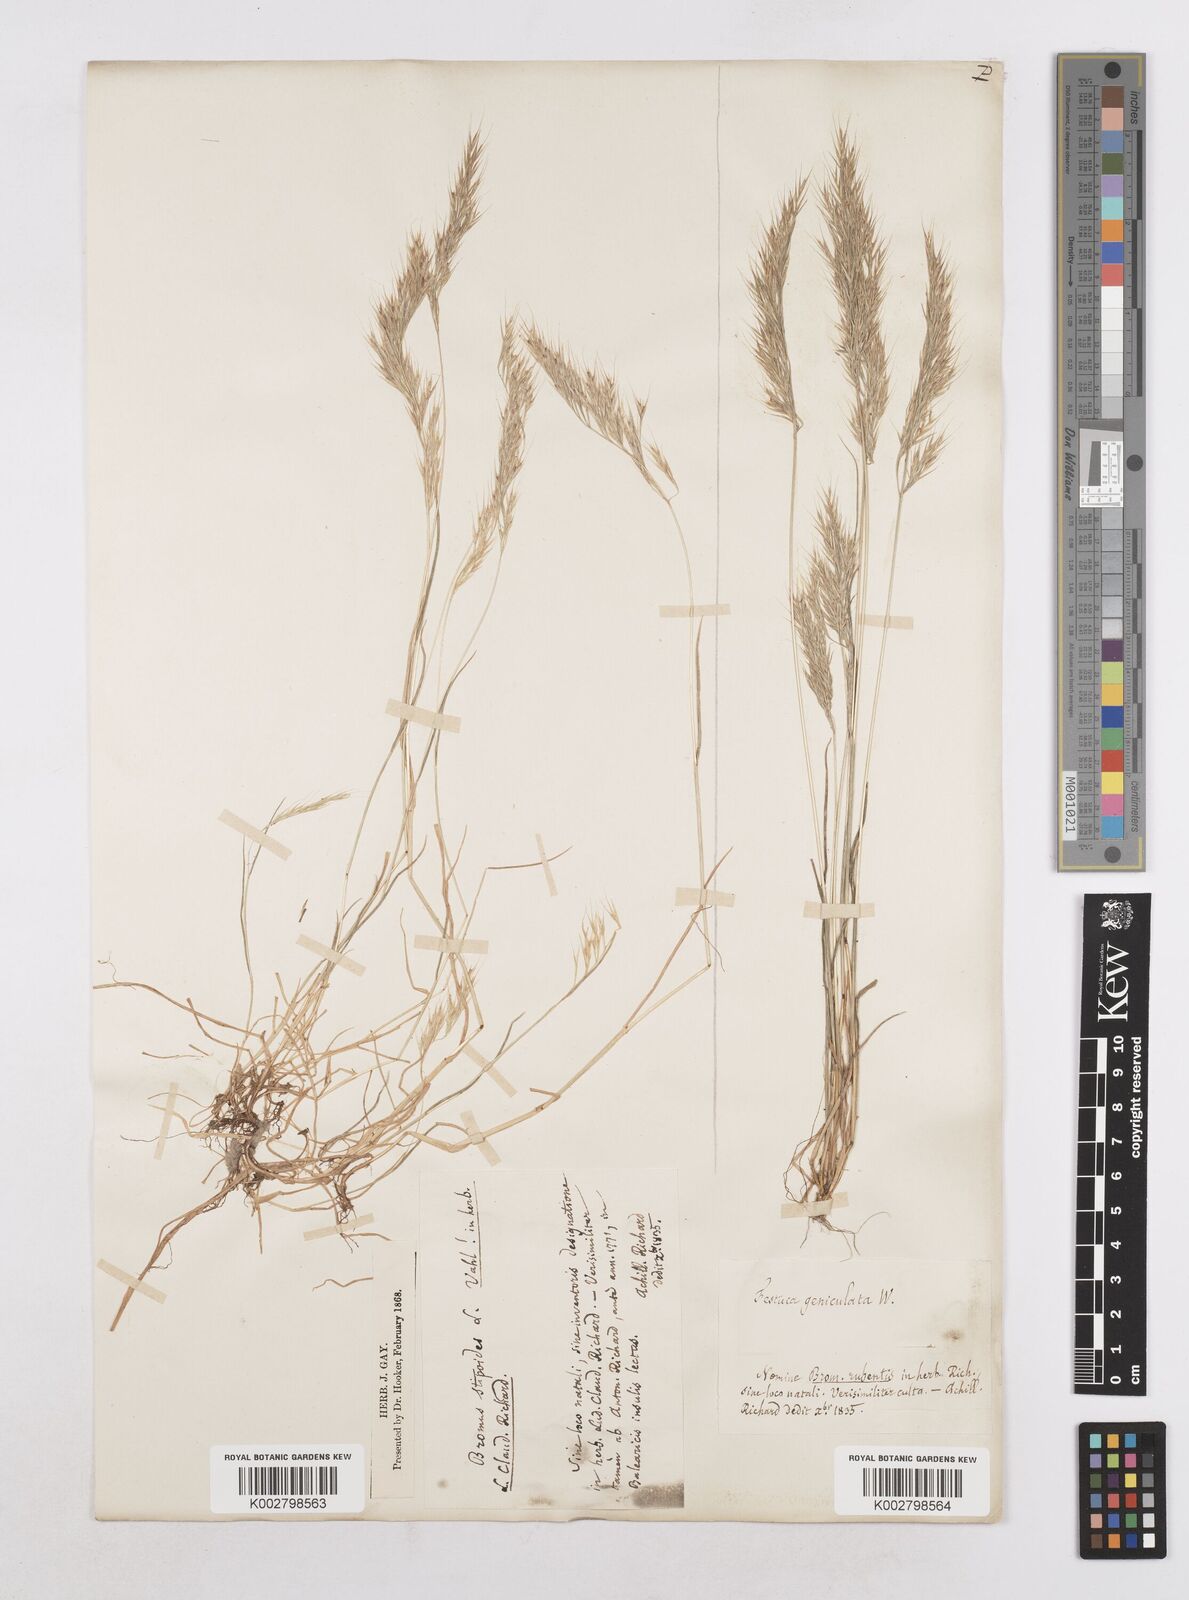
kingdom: Plantae
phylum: Tracheophyta
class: Liliopsida
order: Poales
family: Poaceae
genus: Festuca
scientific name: Festuca geniculata
